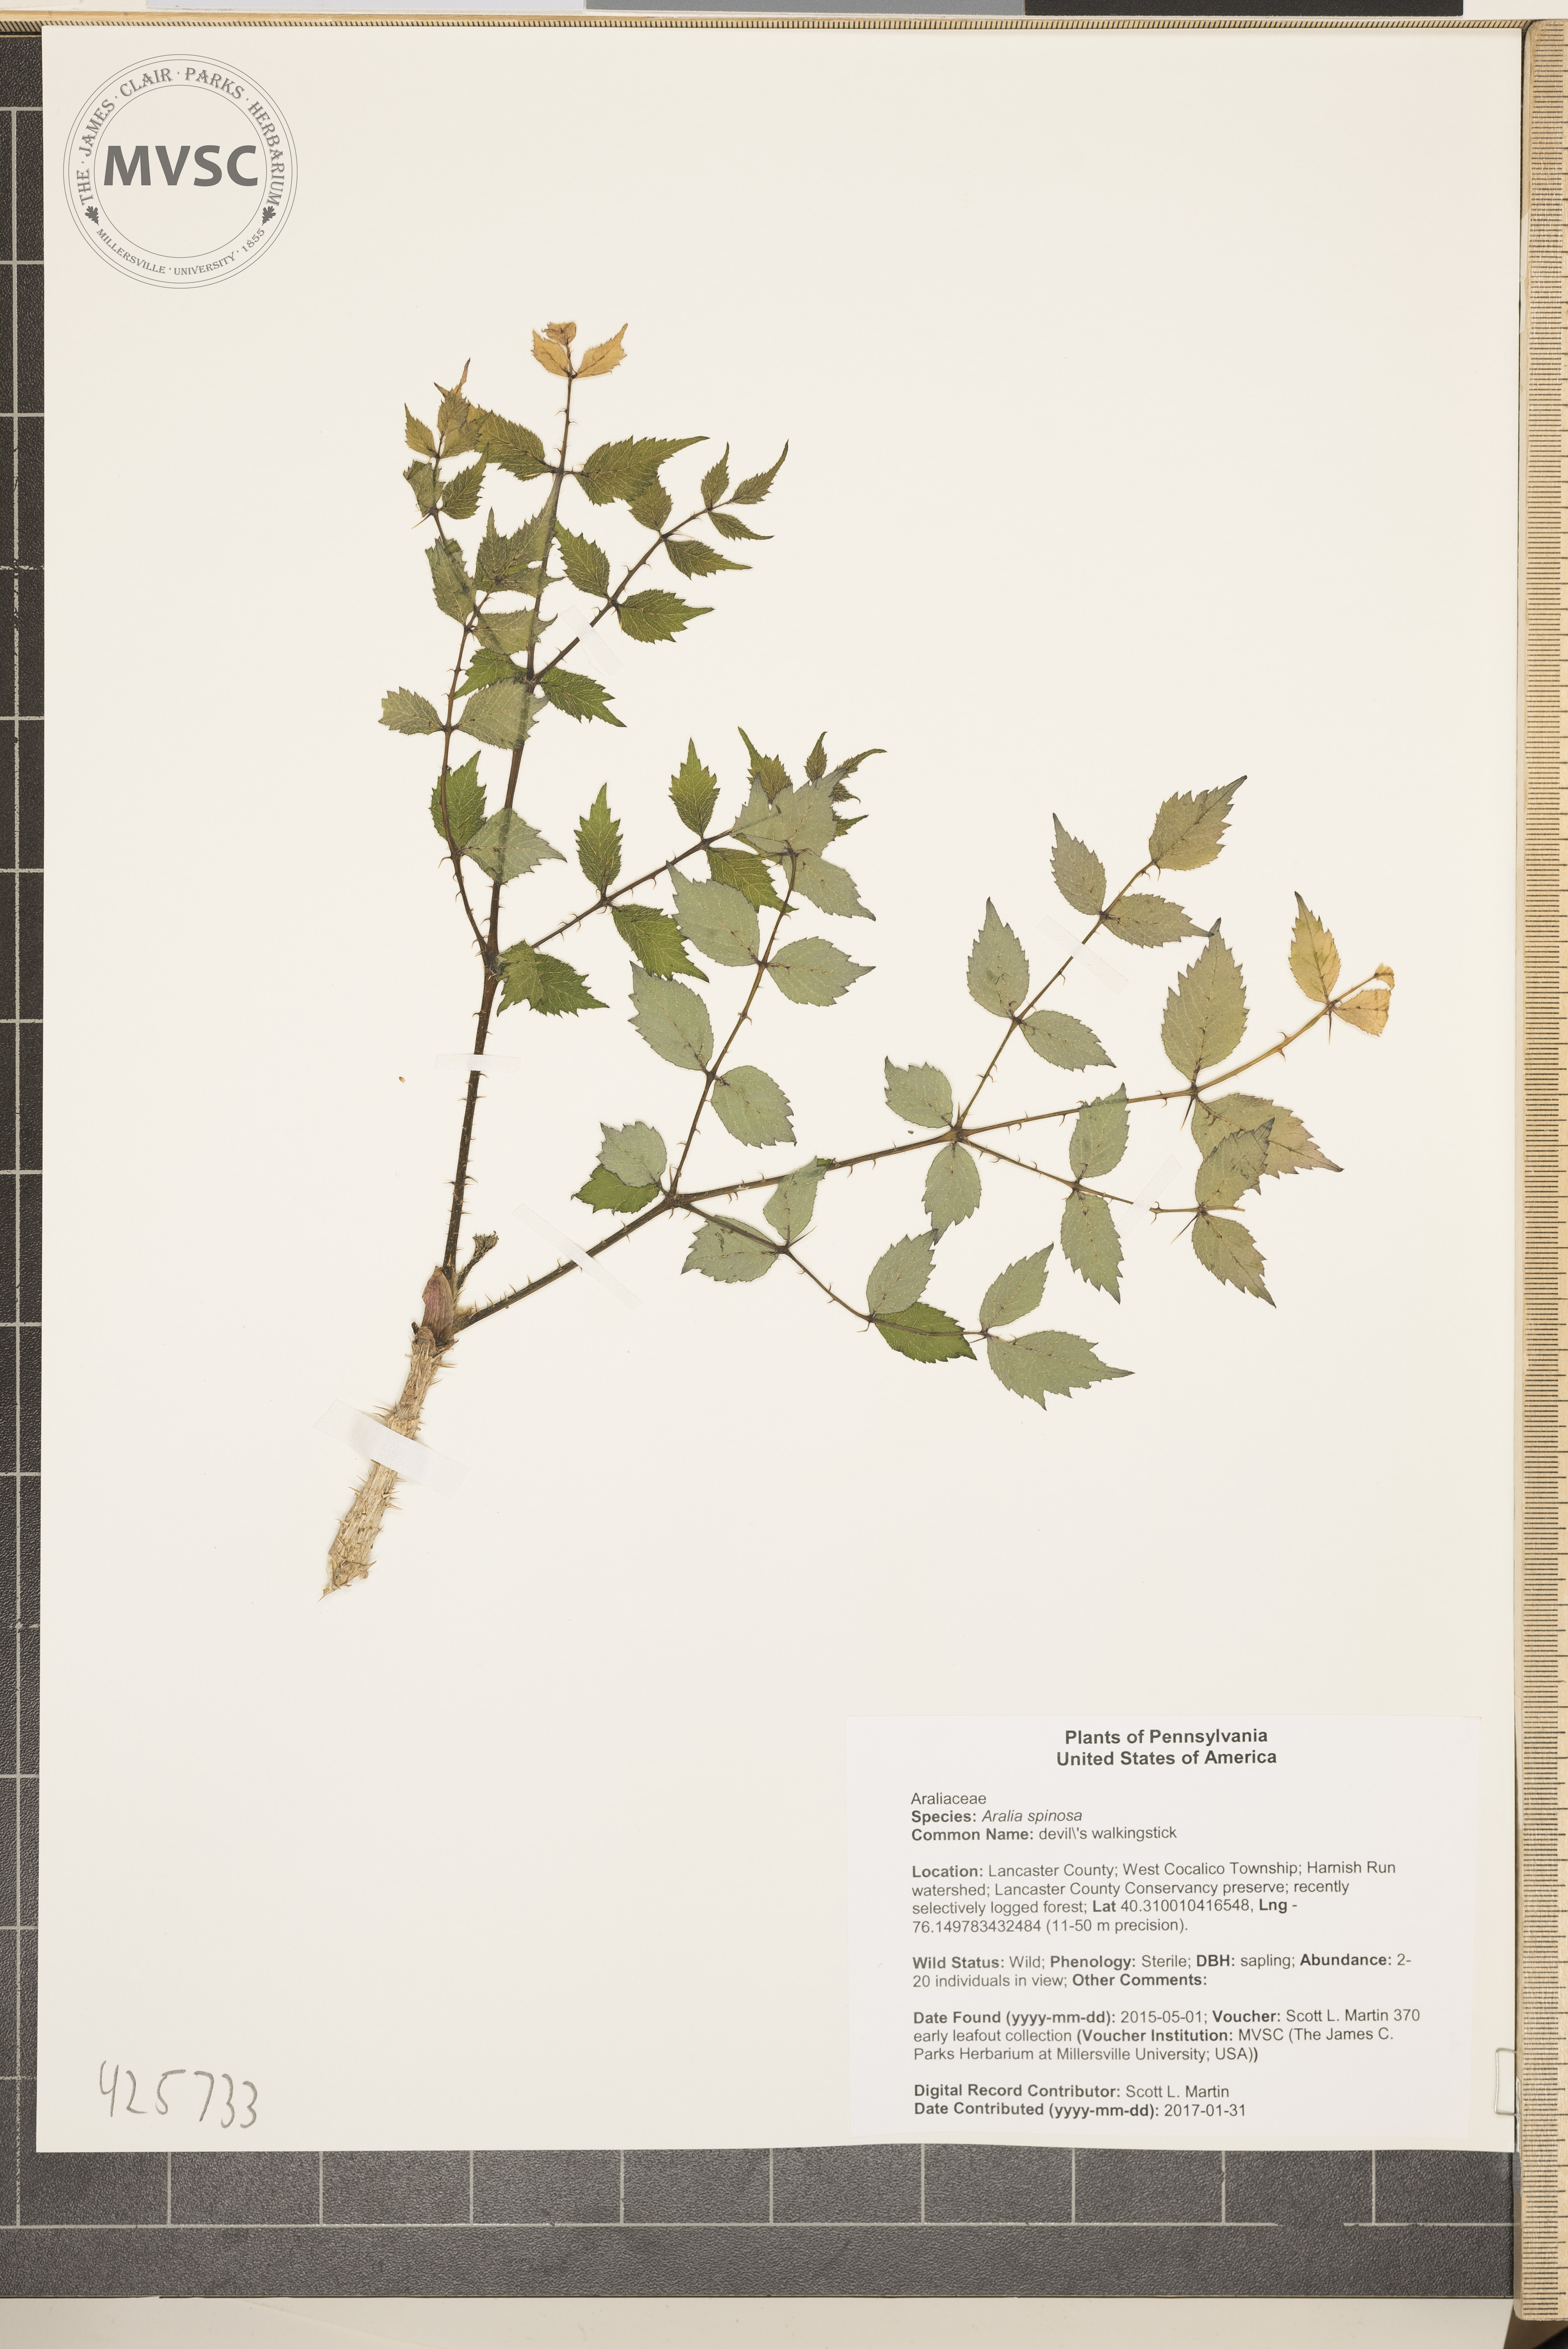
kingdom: Plantae
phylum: Tracheophyta
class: Magnoliopsida
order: Apiales
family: Araliaceae
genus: Aralia
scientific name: Aralia spinosa
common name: devil's walkingstick
